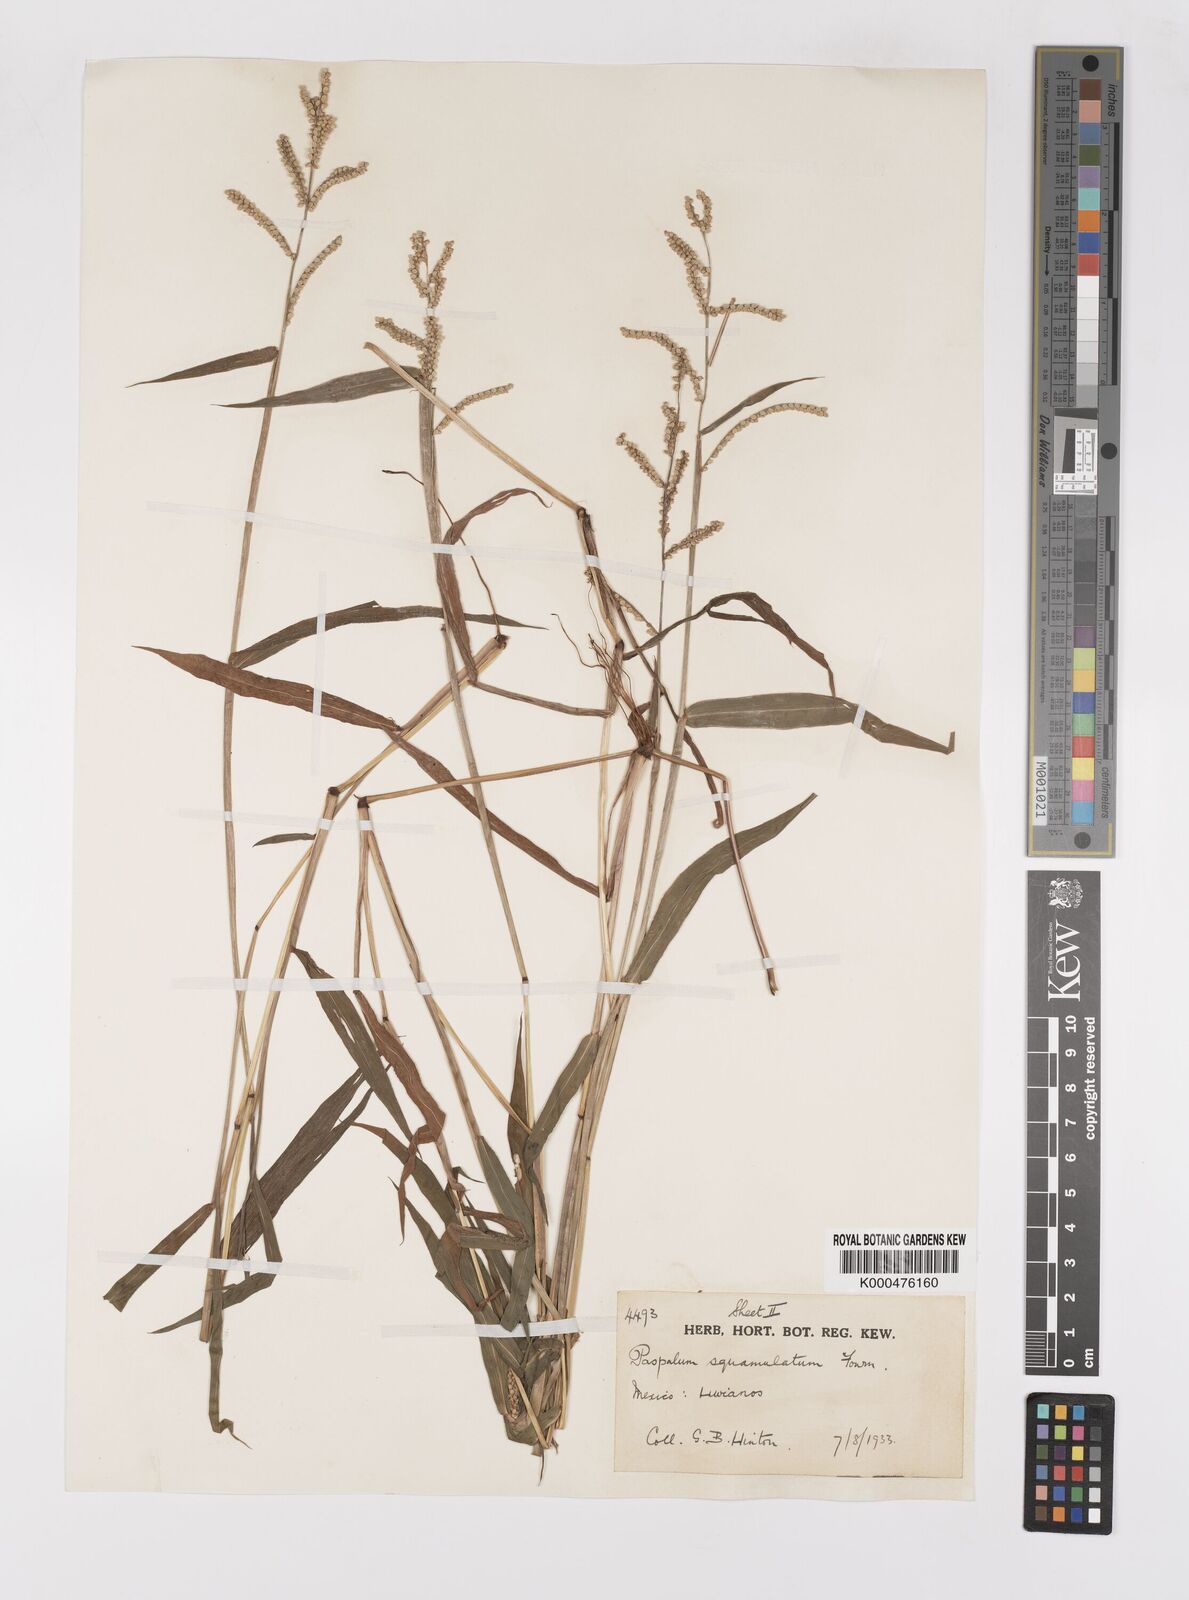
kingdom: Plantae
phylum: Tracheophyta
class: Liliopsida
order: Poales
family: Poaceae
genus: Paspalum
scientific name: Paspalum squamulatum
